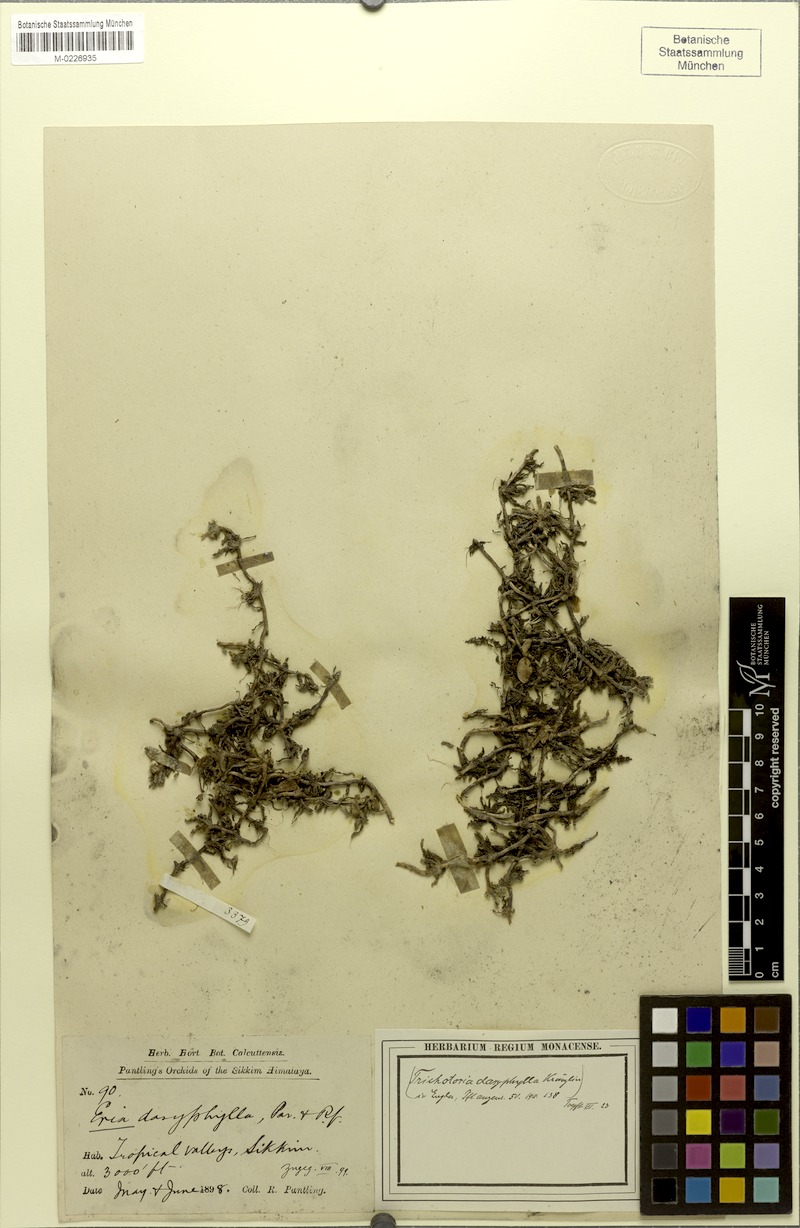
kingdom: Plantae
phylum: Tracheophyta
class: Liliopsida
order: Asparagales
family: Orchidaceae
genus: Trichotosia
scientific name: Trichotosia dasyphylla
